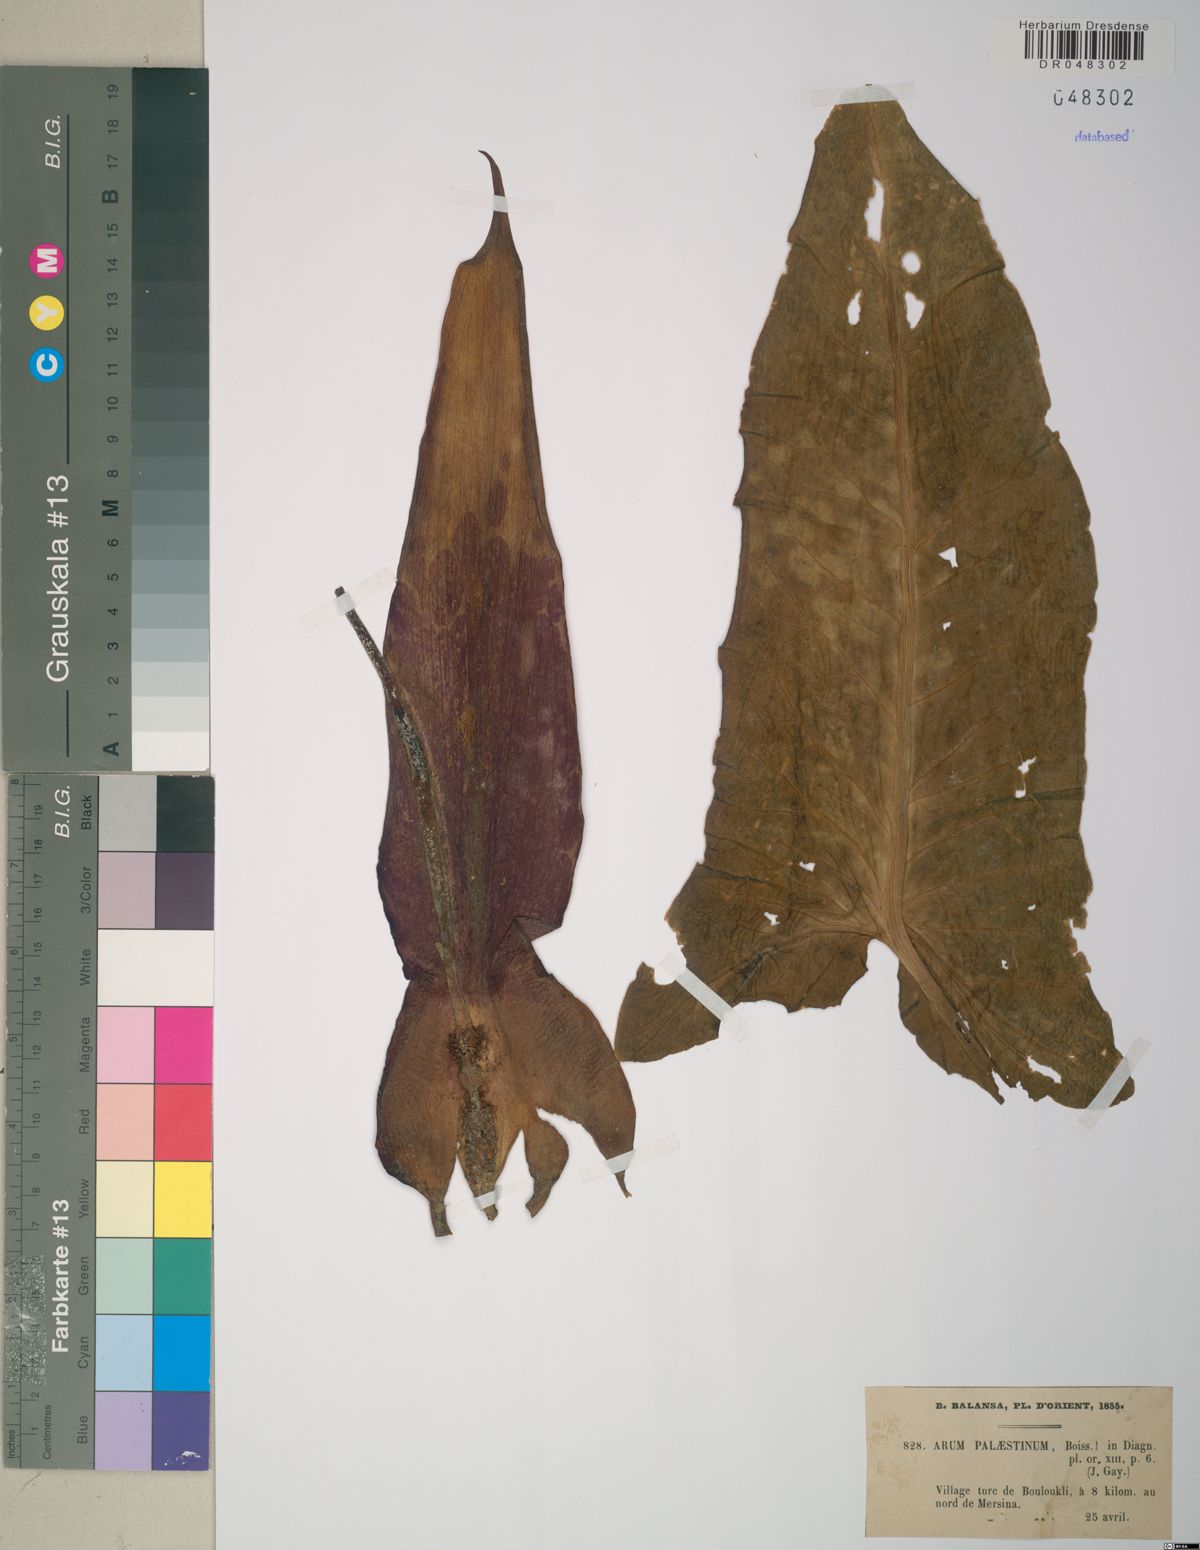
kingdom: Plantae
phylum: Tracheophyta
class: Liliopsida
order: Alismatales
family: Araceae
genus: Arum
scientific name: Arum palaestinum
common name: Solomon's lily
